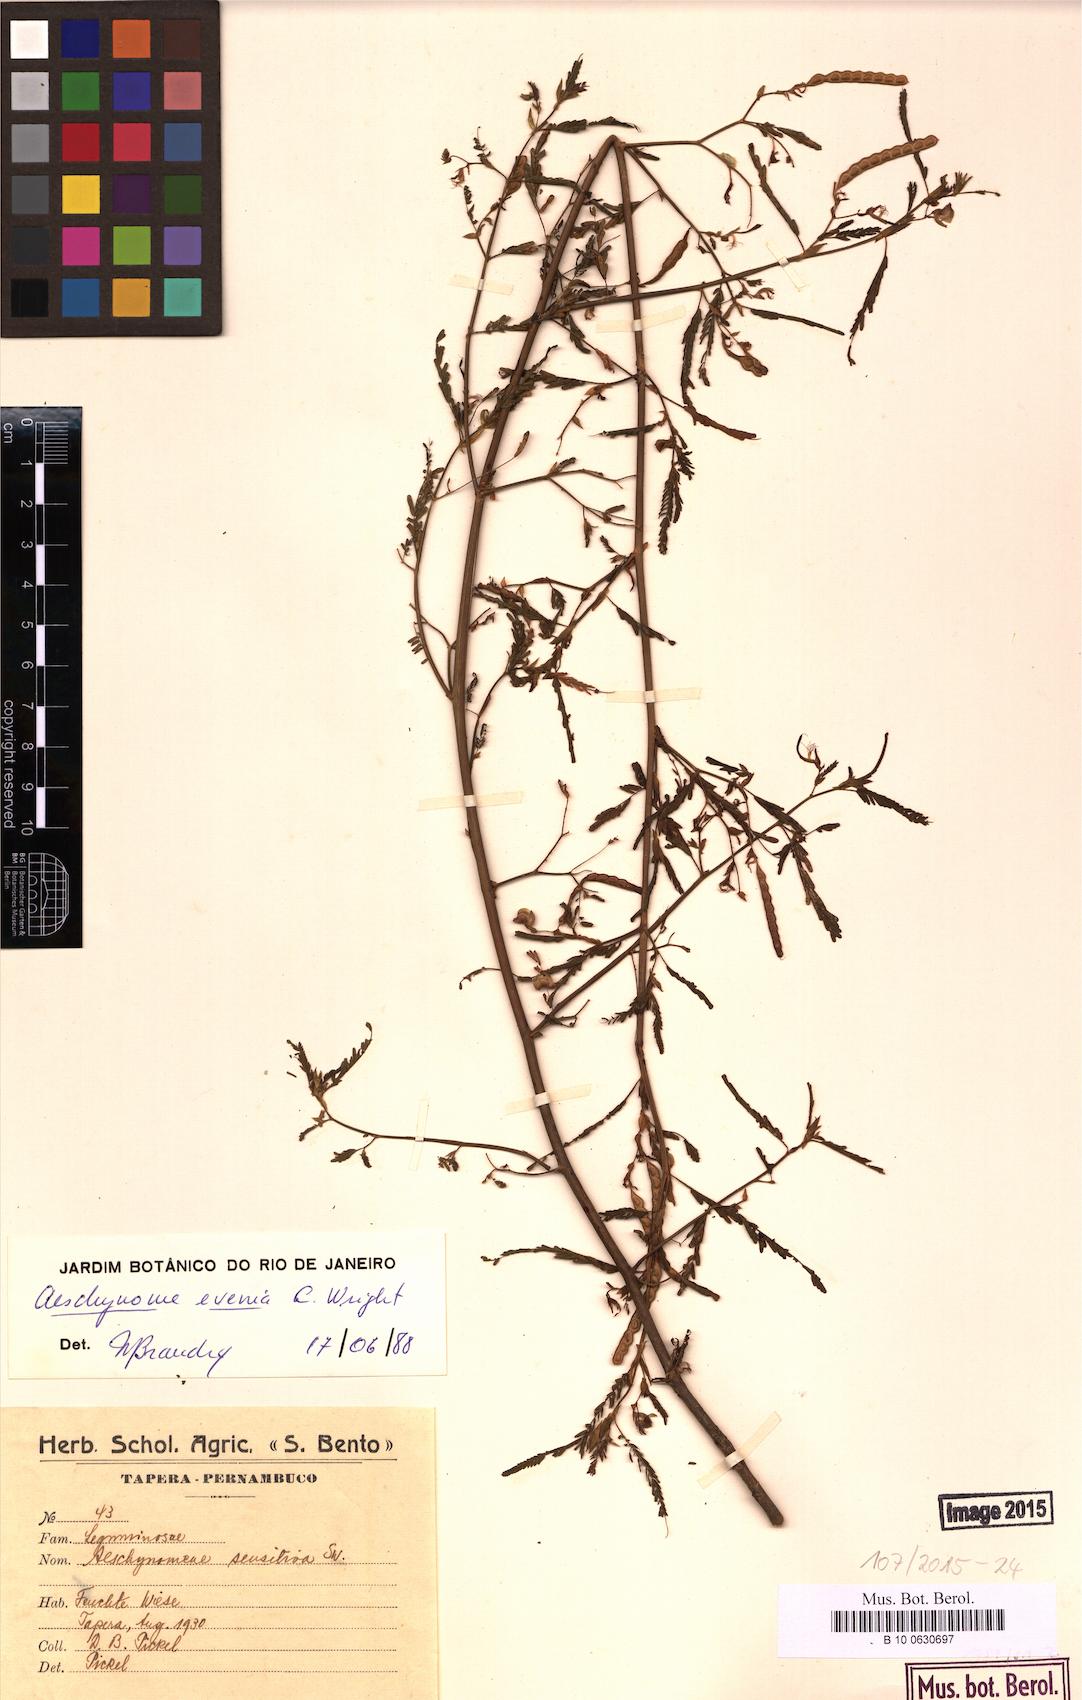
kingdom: Plantae
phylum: Tracheophyta
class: Magnoliopsida
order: Fabales
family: Fabaceae
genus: Aeschynomene
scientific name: Aeschynomene evenia
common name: Shrubby jointvetch
